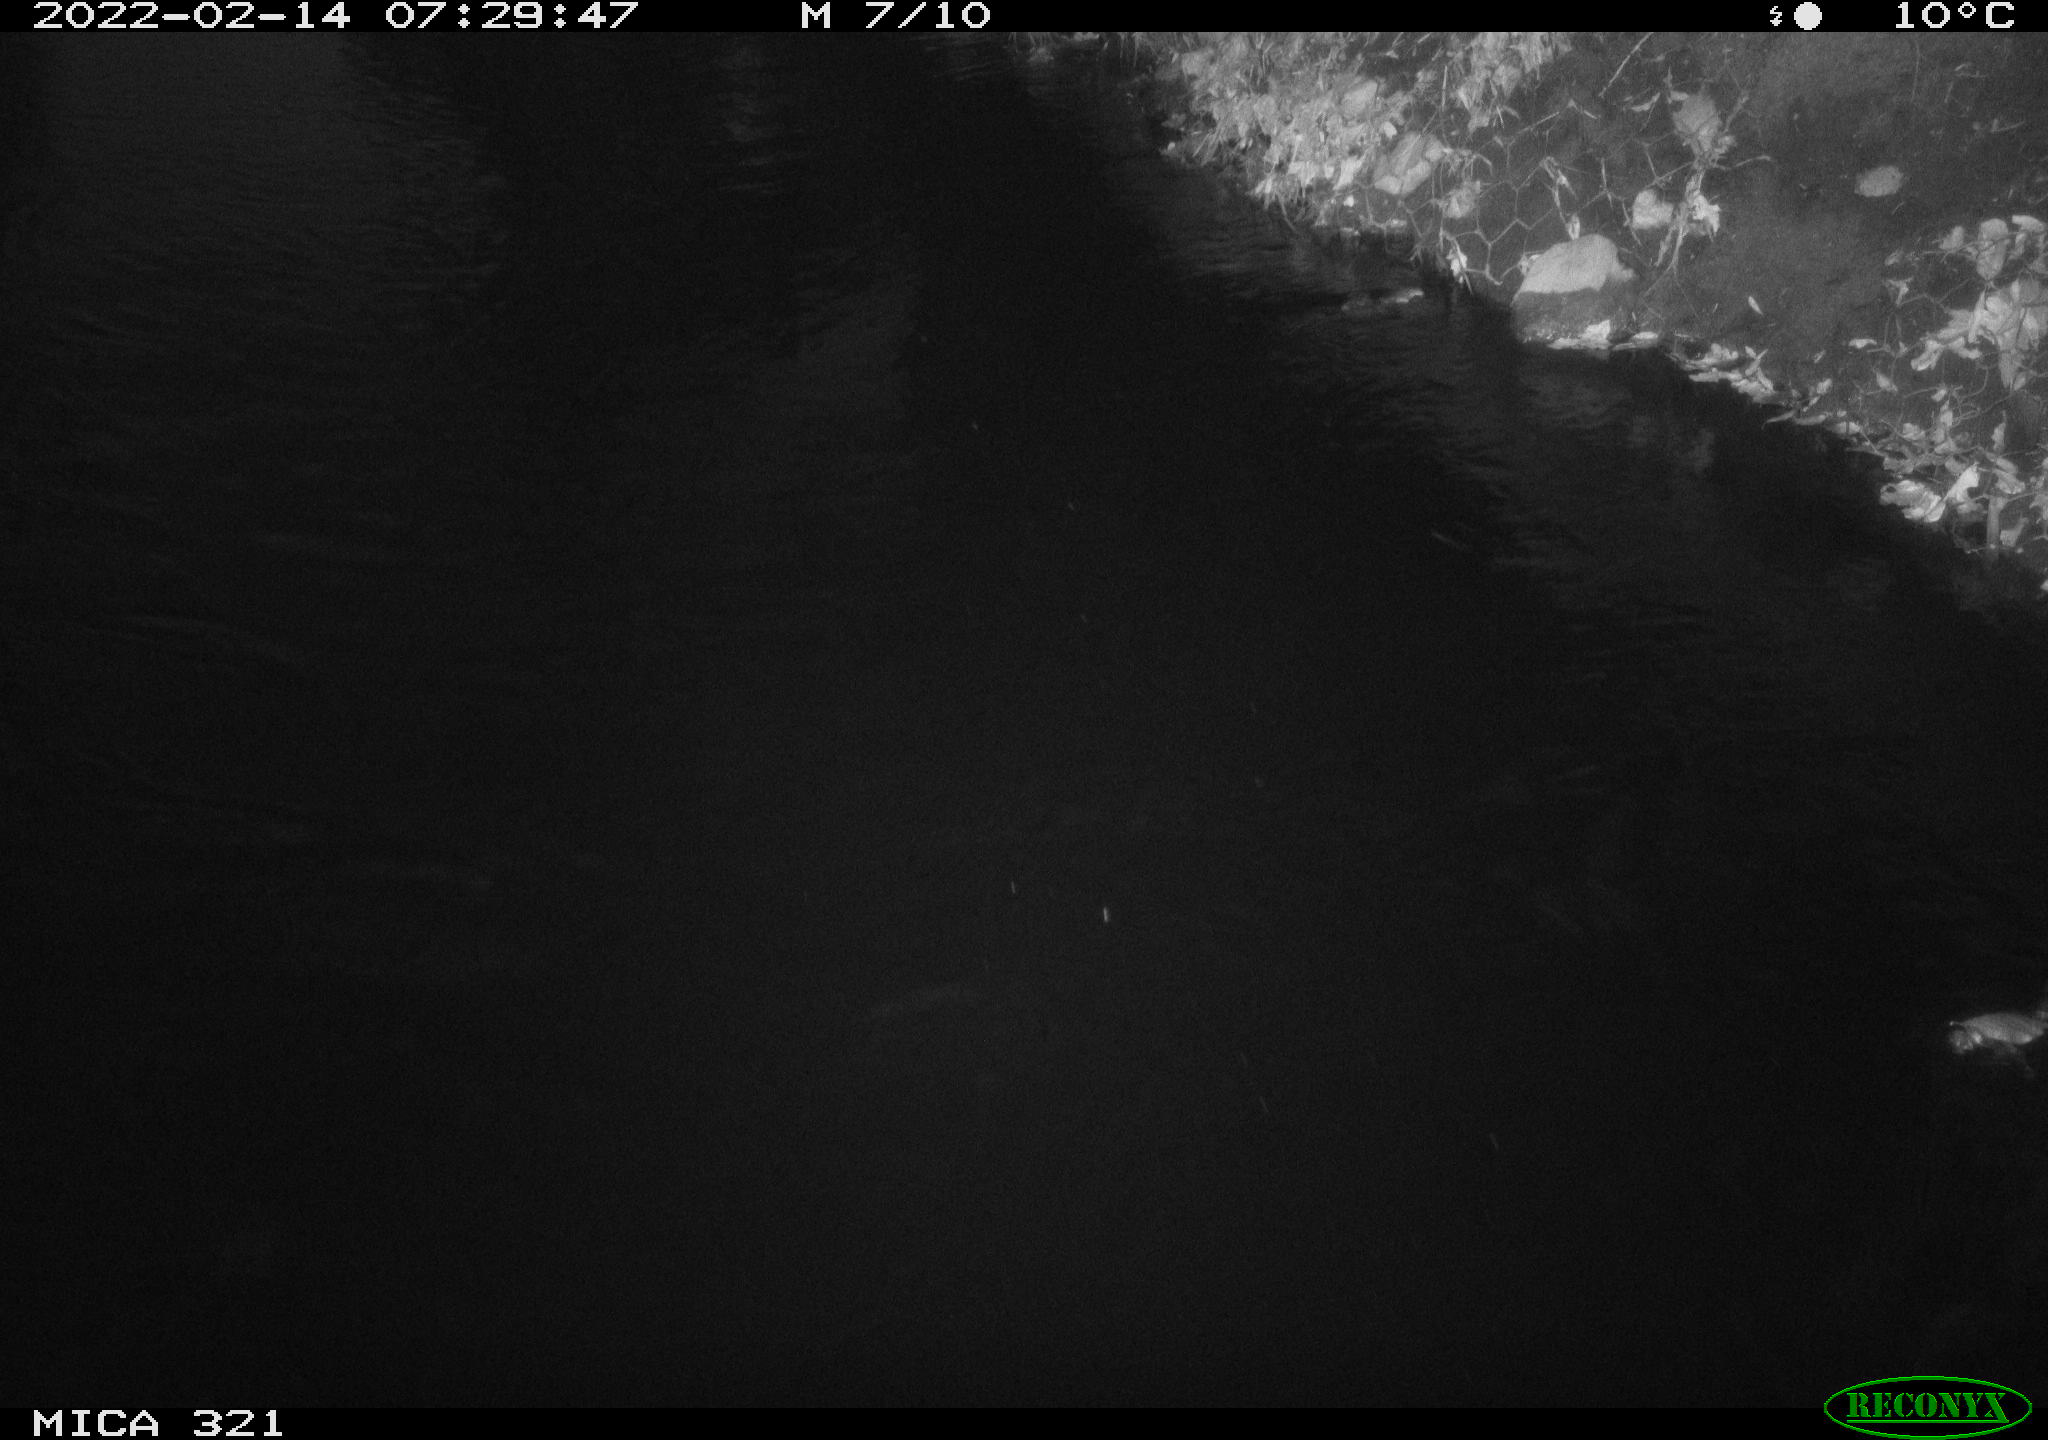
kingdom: Animalia
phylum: Chordata
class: Aves
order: Anseriformes
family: Anatidae
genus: Anas
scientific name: Anas platyrhynchos
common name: Mallard
